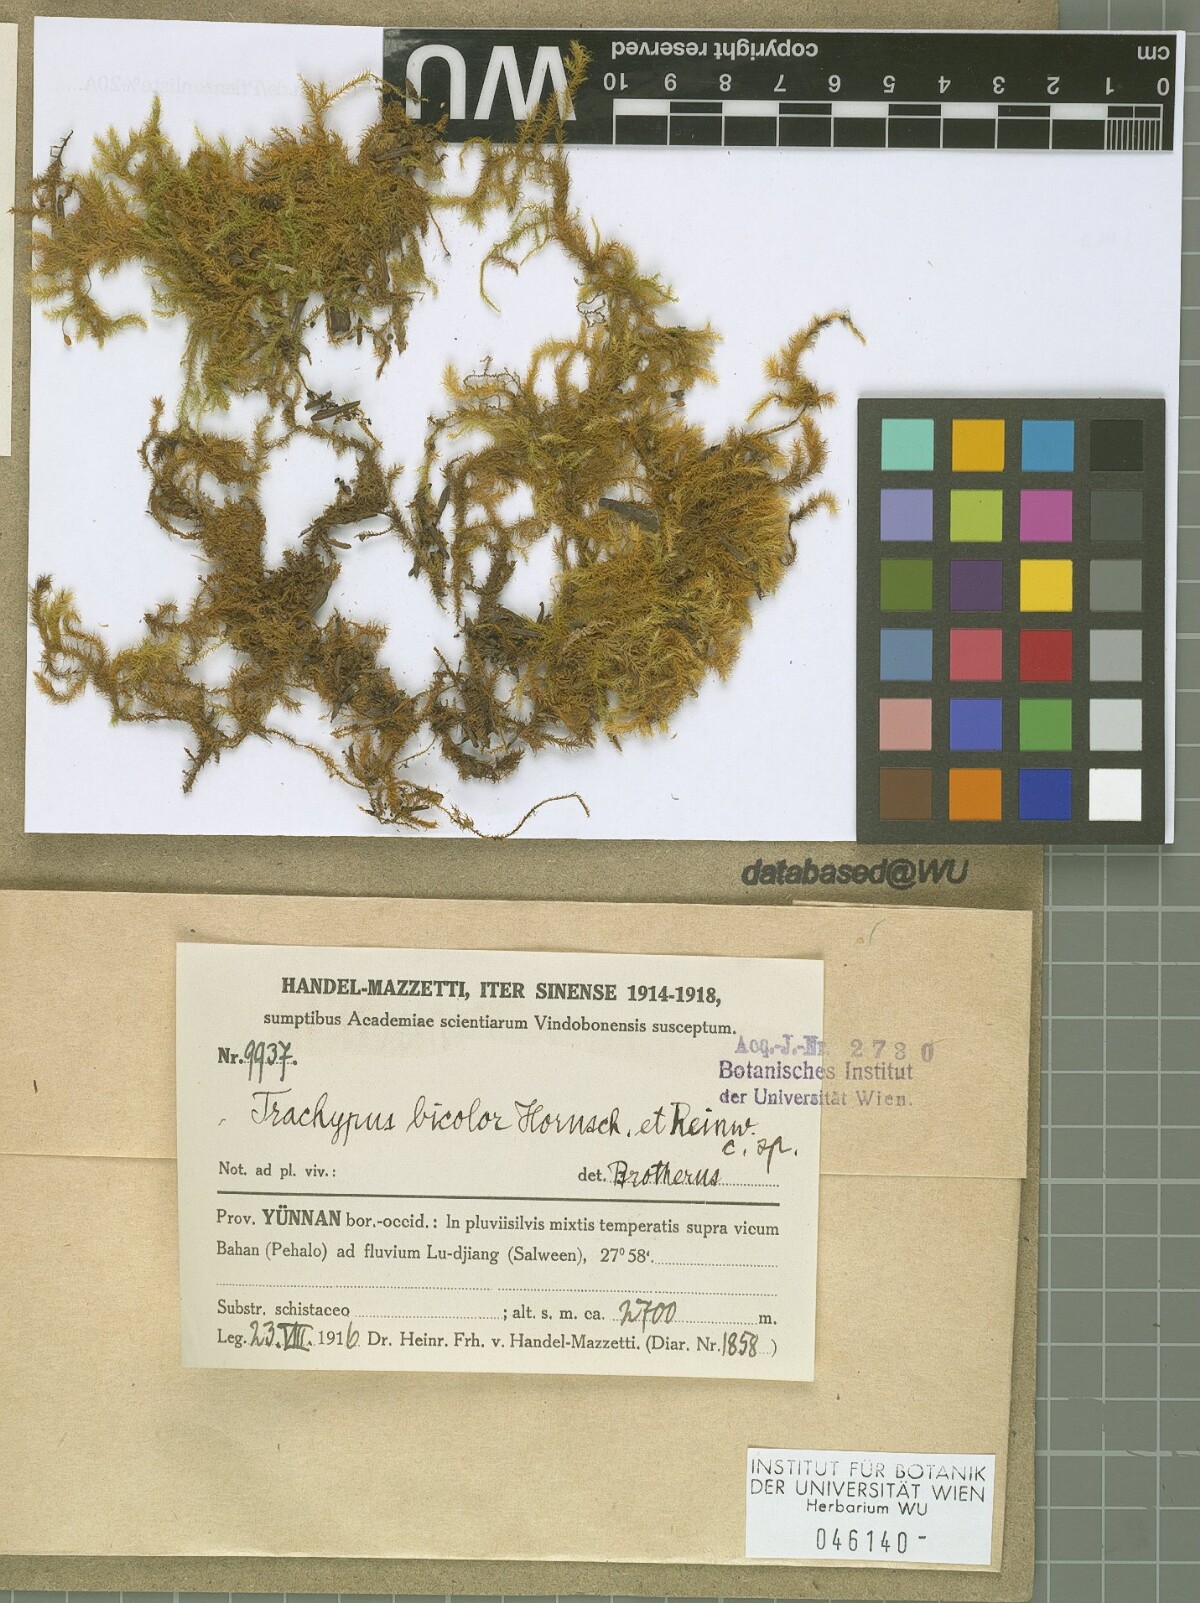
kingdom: Plantae
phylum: Bryophyta
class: Bryopsida
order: Hypnales
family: Meteoriaceae
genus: Trachypus
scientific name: Trachypus bicolor
